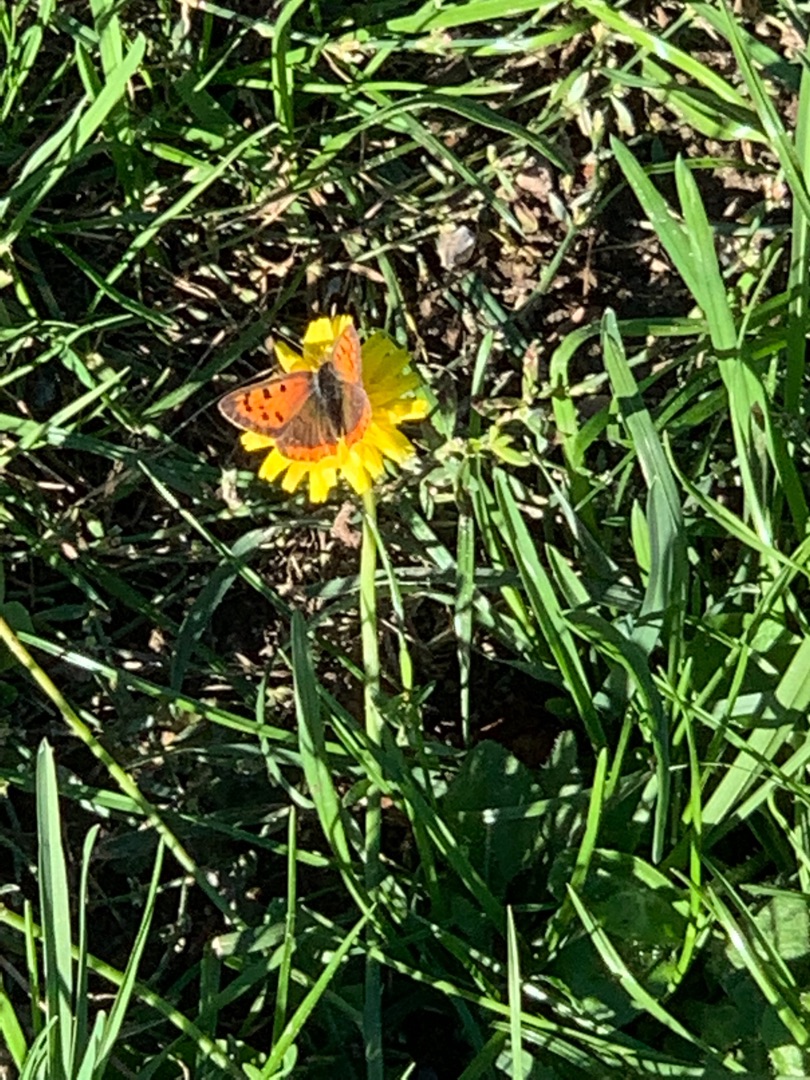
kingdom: Animalia
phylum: Arthropoda
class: Insecta
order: Lepidoptera
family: Lycaenidae
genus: Lycaena
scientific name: Lycaena phlaeas
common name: Lille ildfugl
